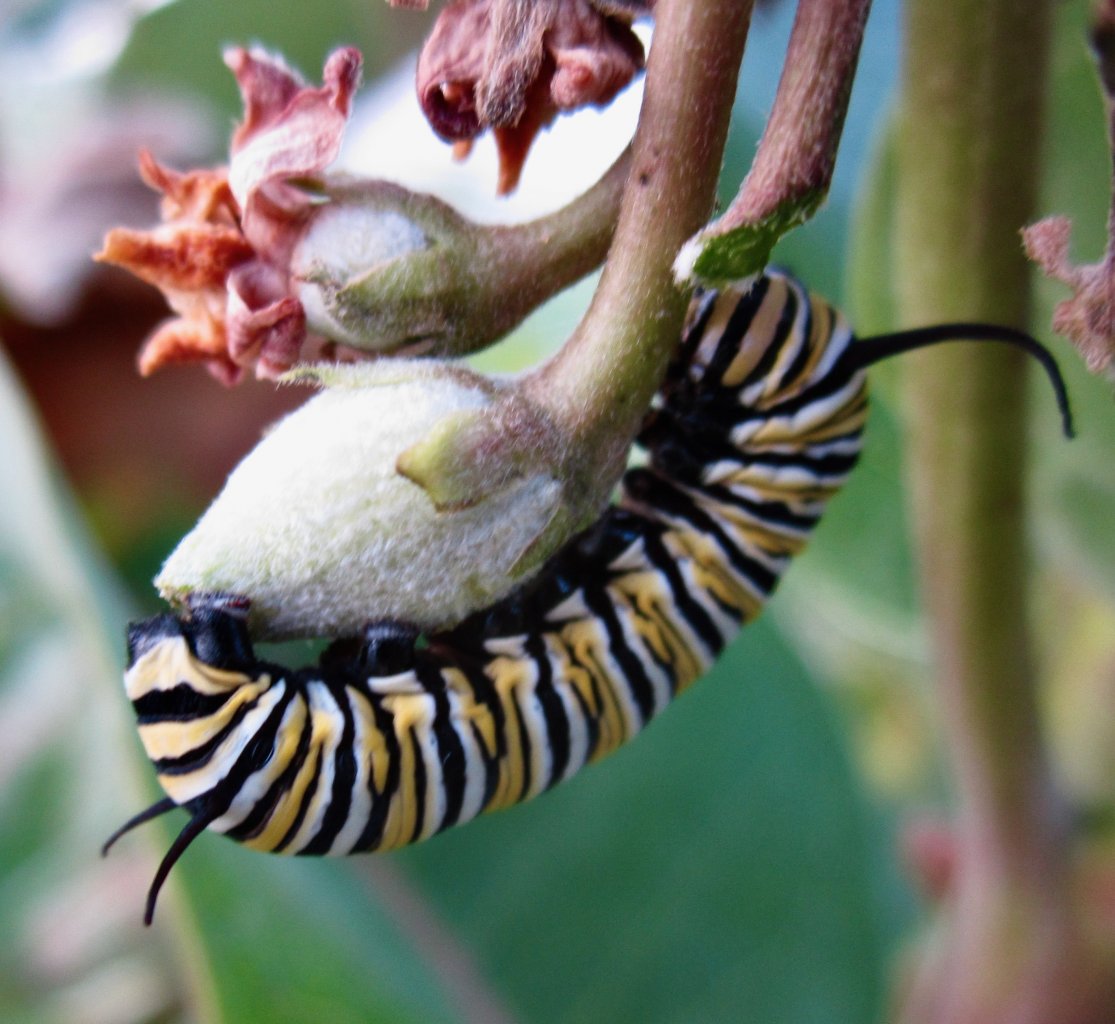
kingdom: Animalia
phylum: Arthropoda
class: Insecta
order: Lepidoptera
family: Nymphalidae
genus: Danaus
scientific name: Danaus plexippus
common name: Monarch
